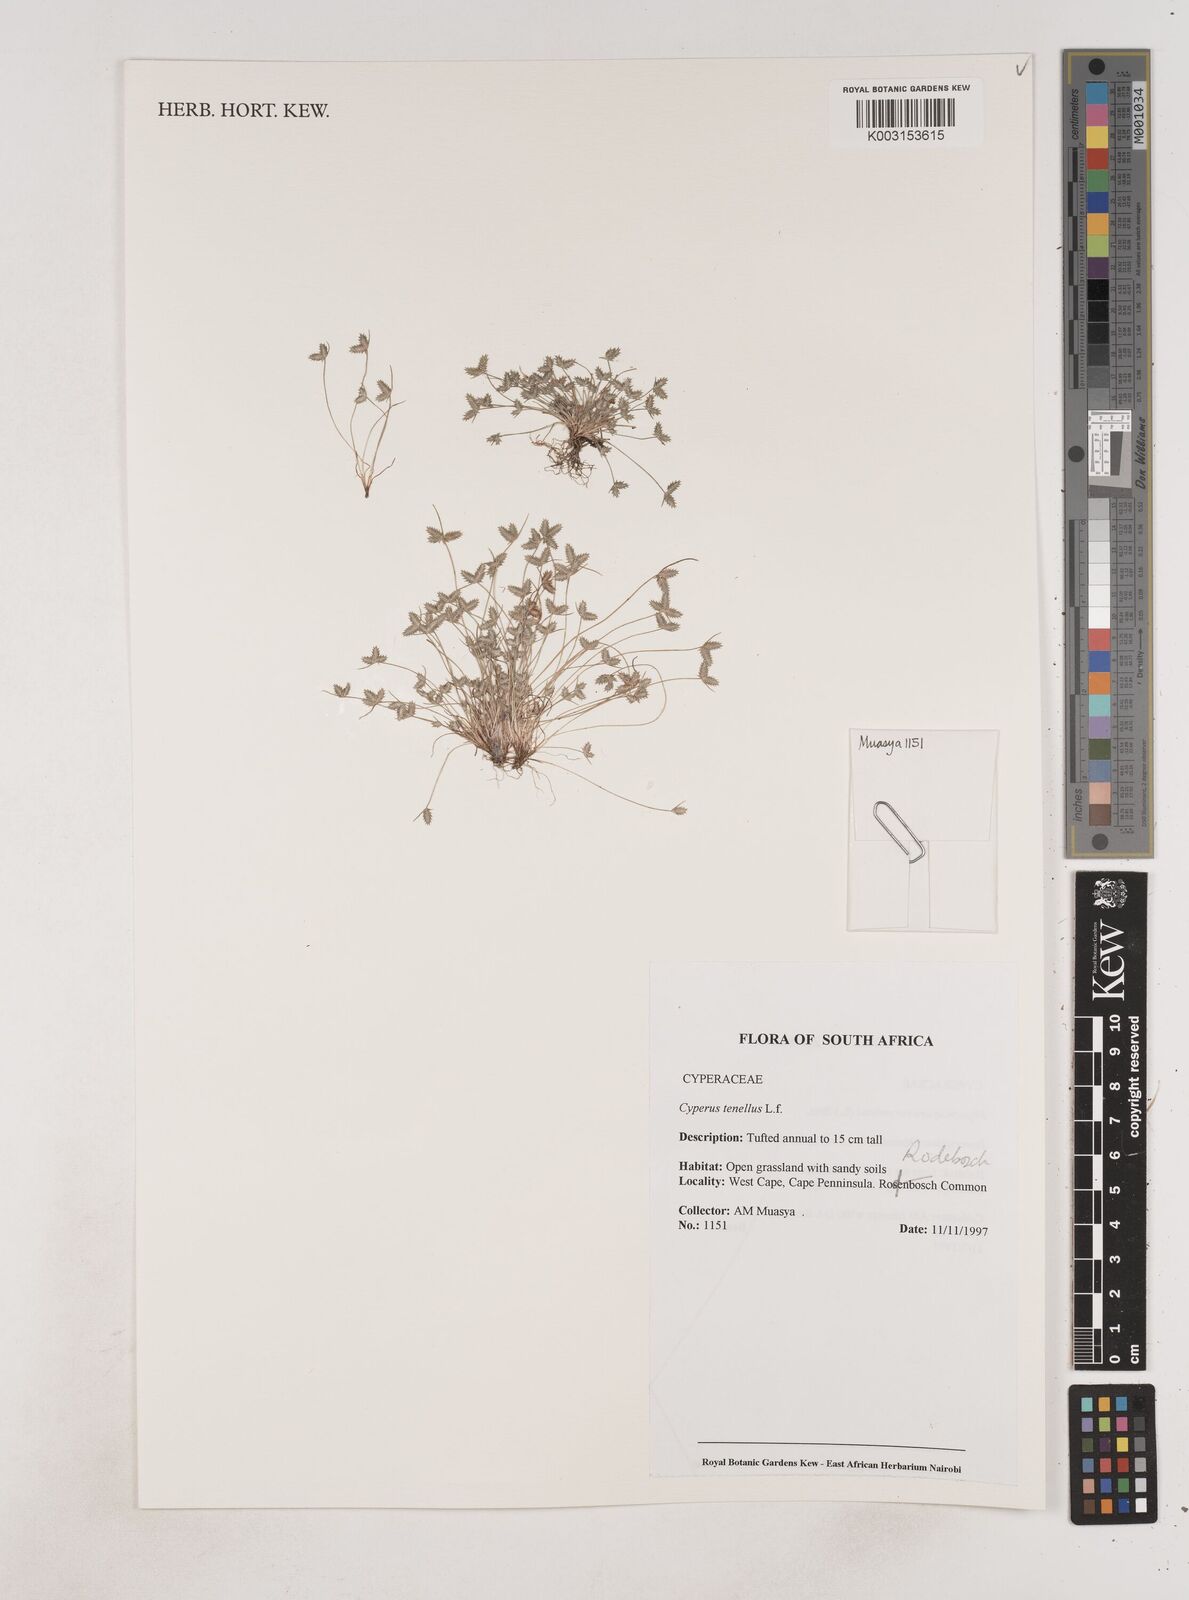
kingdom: Plantae
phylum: Tracheophyta
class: Liliopsida
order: Poales
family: Cyperaceae
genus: Isolepis
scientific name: Isolepis levynsiana
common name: Sedge
